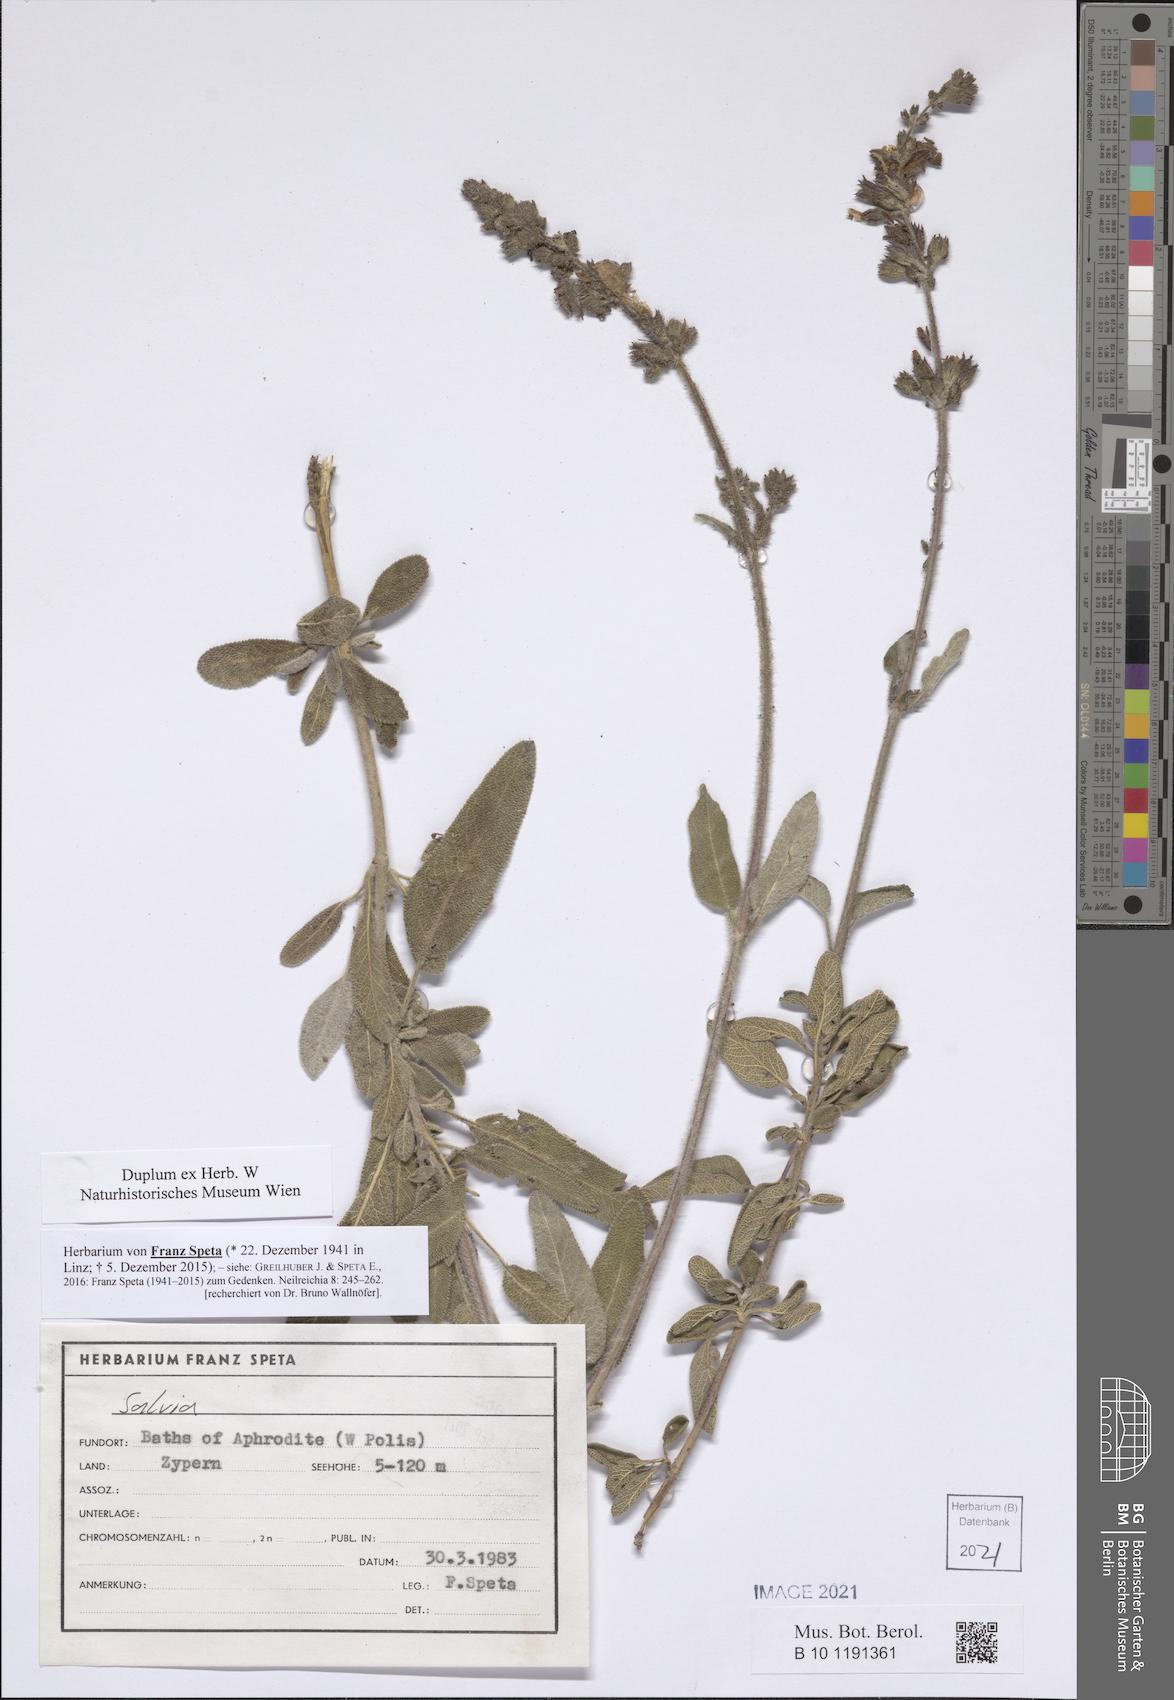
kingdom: Plantae
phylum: Tracheophyta
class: Magnoliopsida
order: Lamiales
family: Lamiaceae
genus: Salvia
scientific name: Salvia
